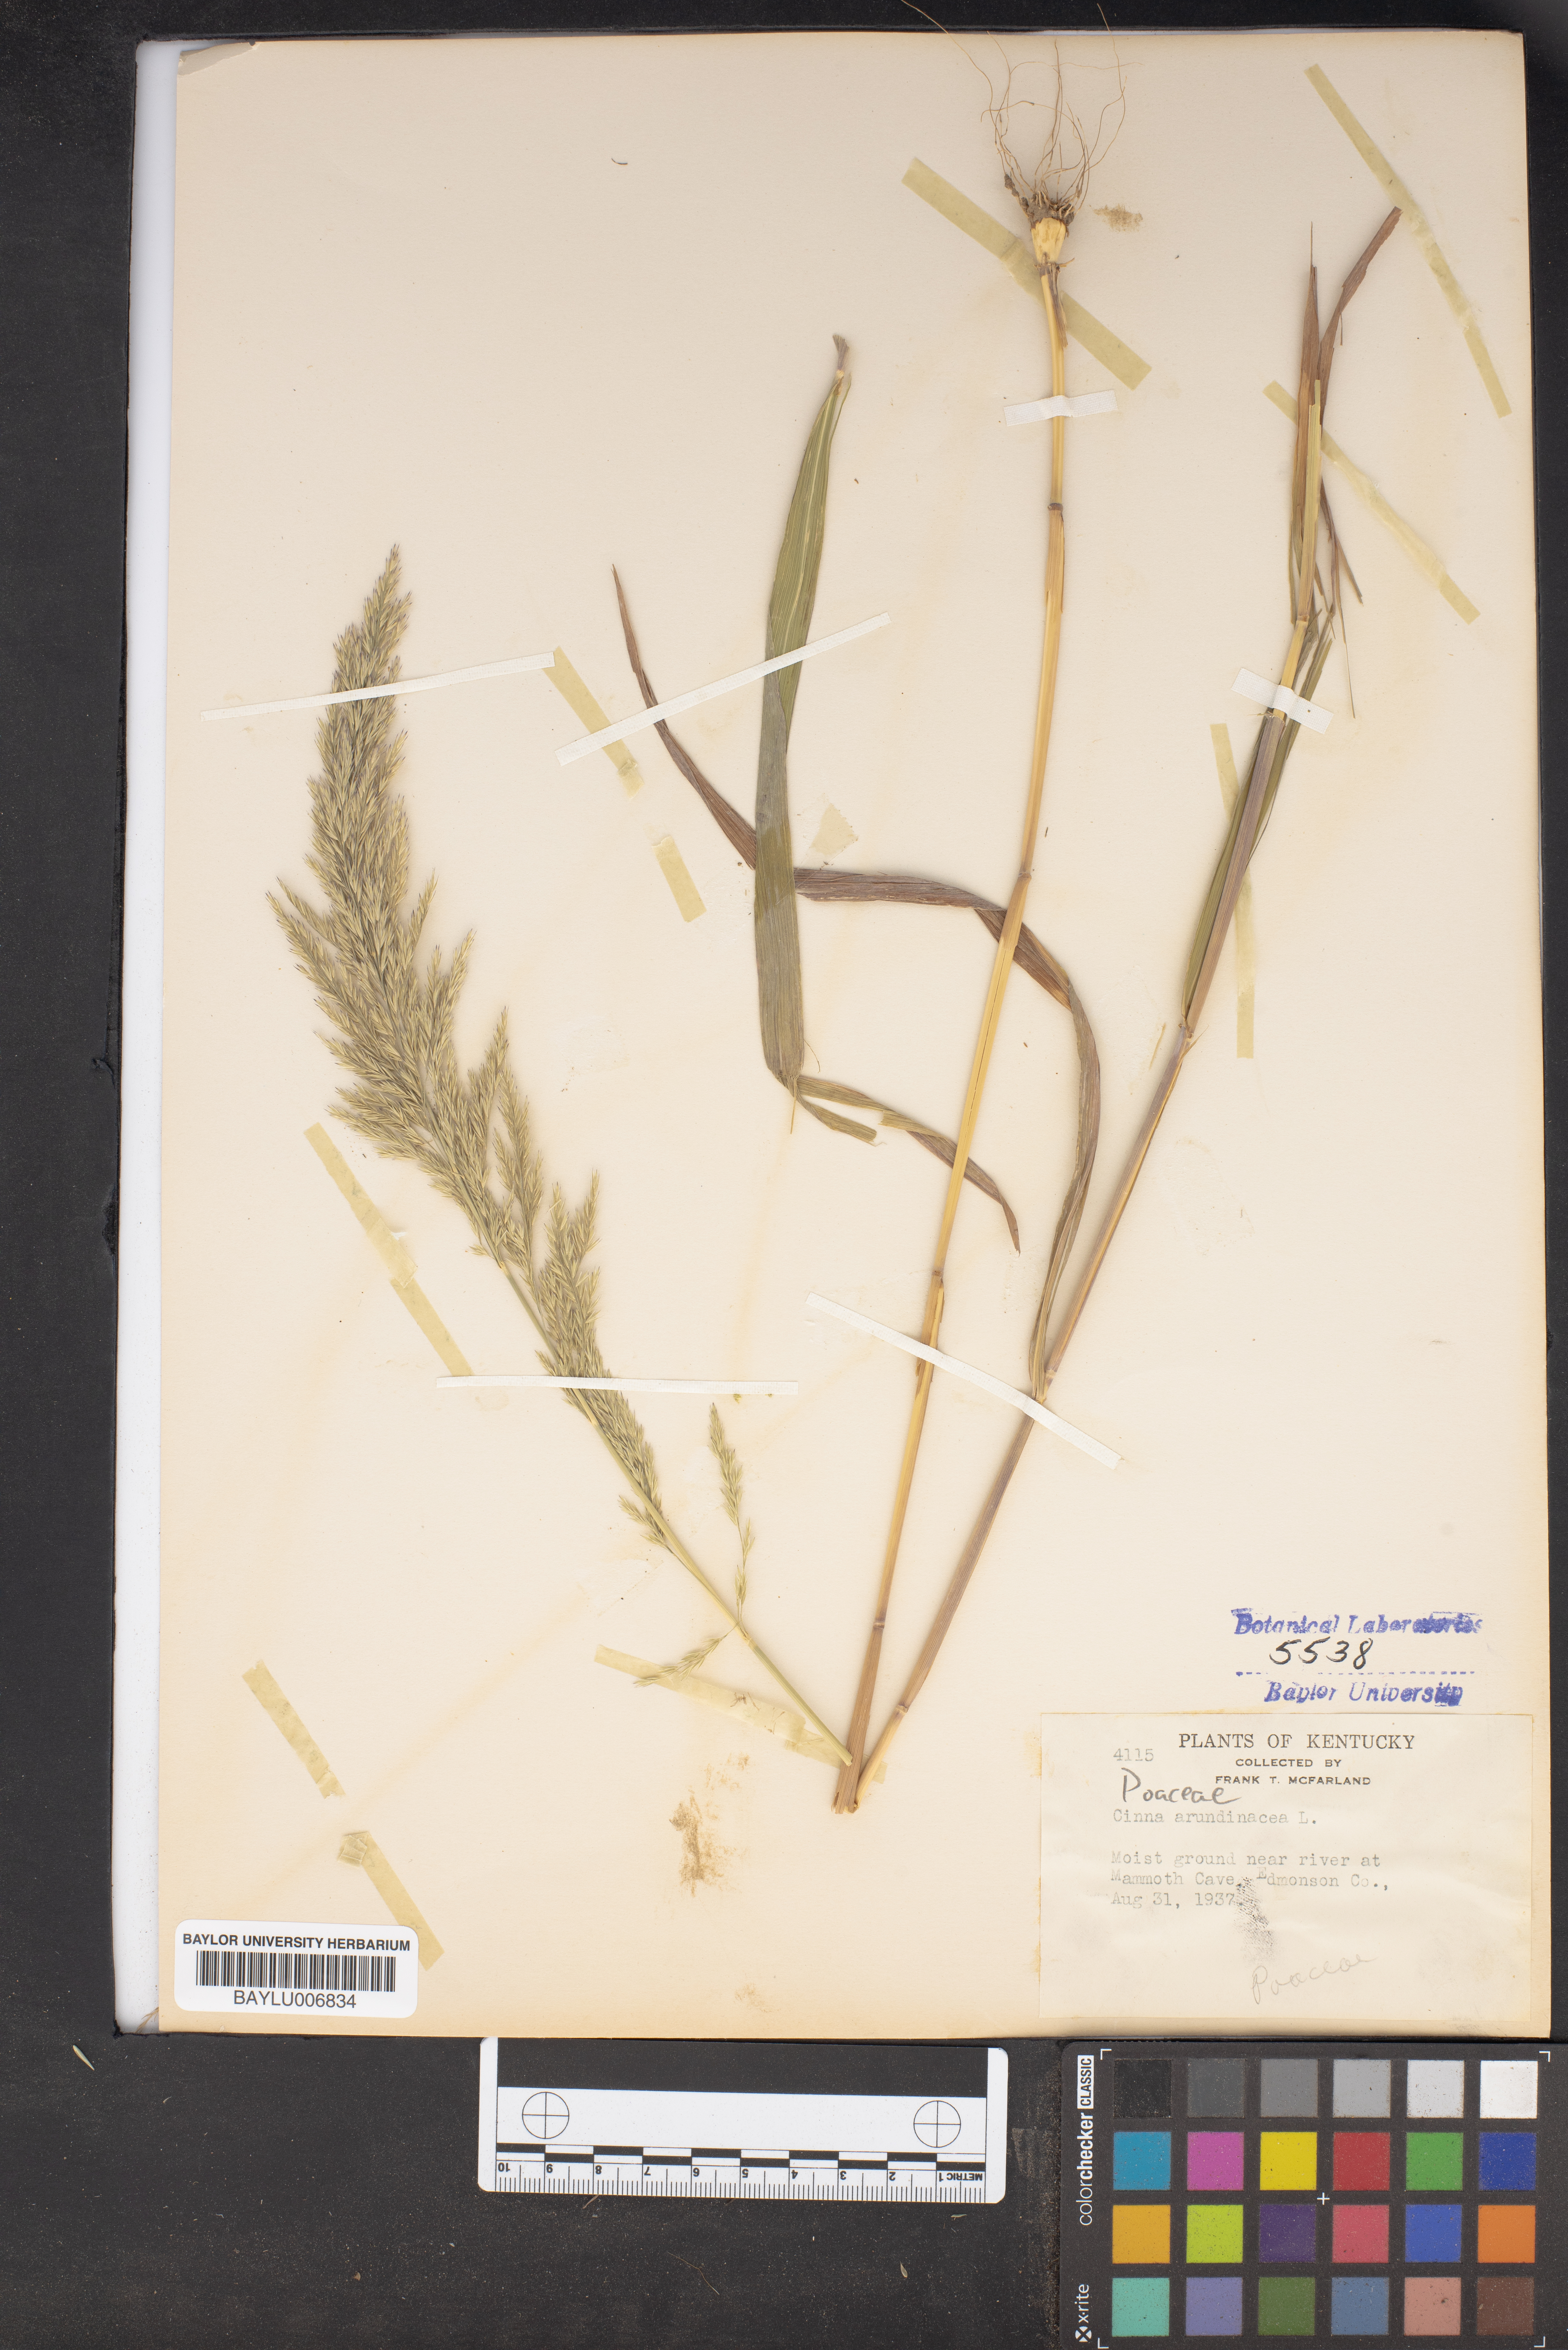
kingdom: Plantae
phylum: Tracheophyta
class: Liliopsida
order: Poales
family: Poaceae
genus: Cinna
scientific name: Cinna arundinacea
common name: Stout woodreed
